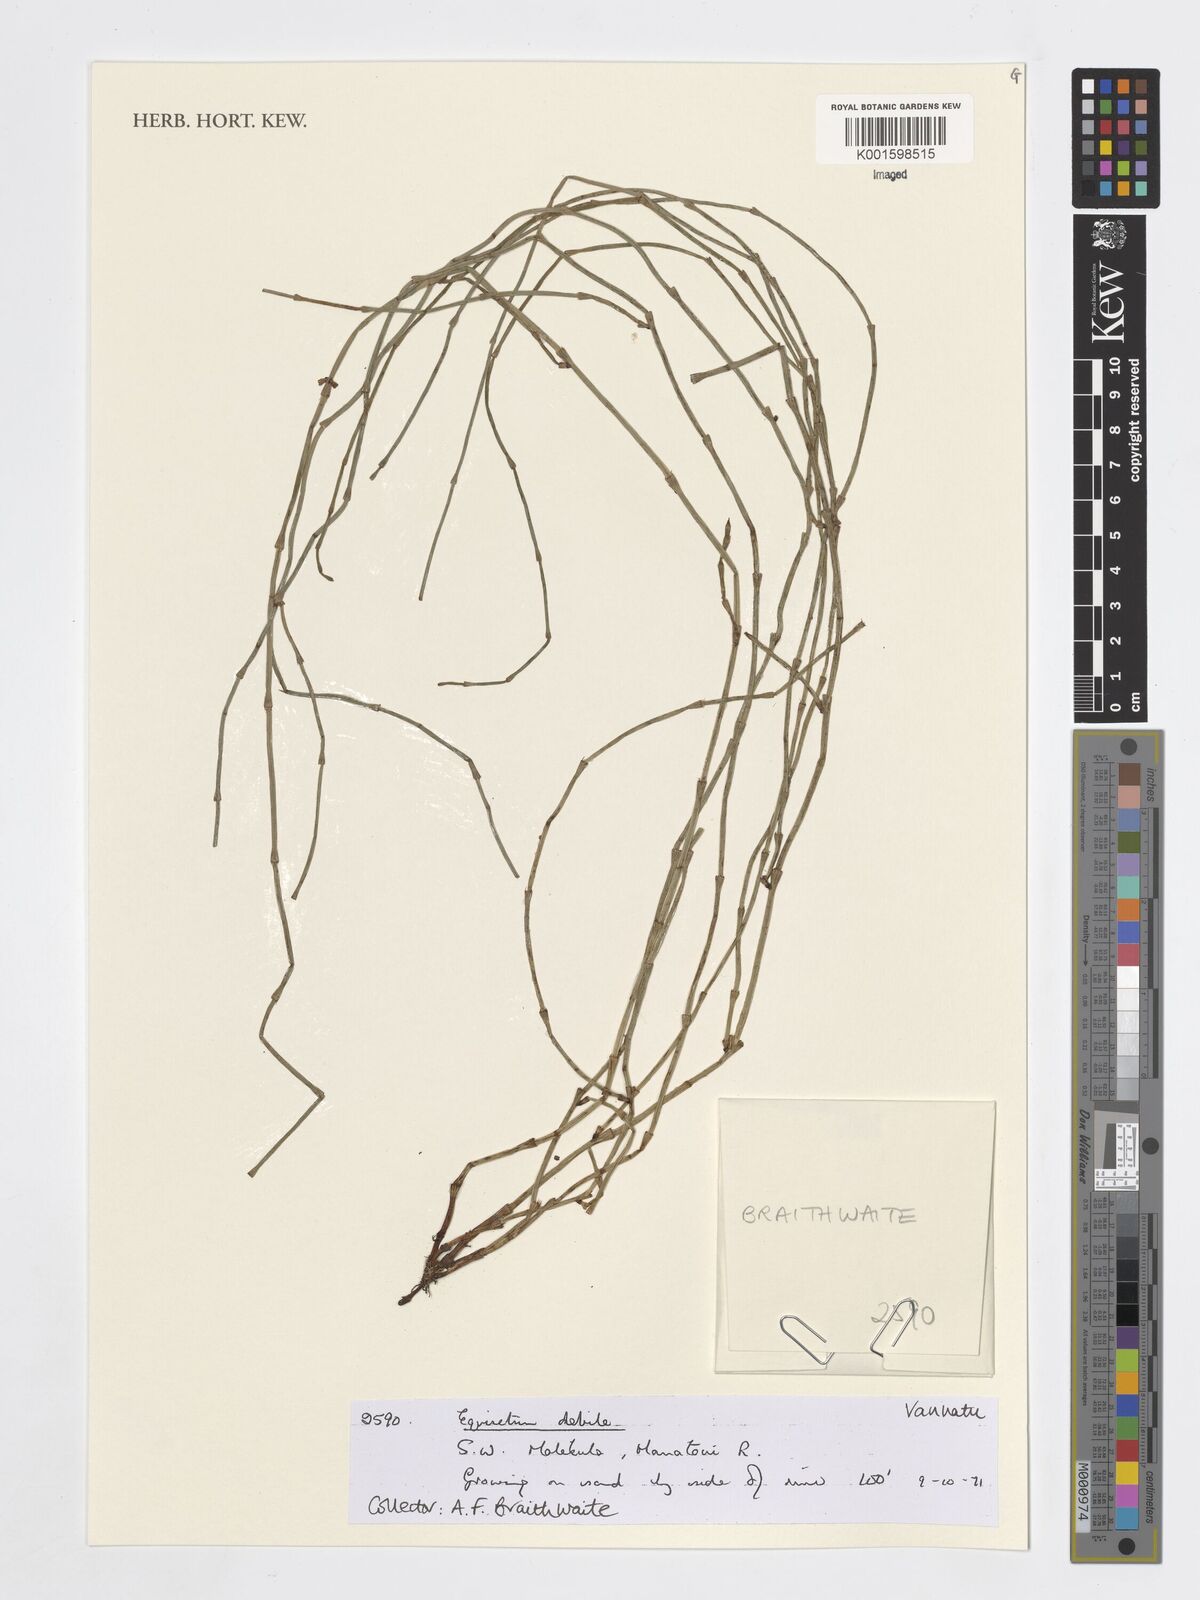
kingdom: Plantae
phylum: Tracheophyta
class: Polypodiopsida
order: Equisetales
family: Equisetaceae
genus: Equisetum
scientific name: Equisetum ramosissimum
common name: Branched horsetail
